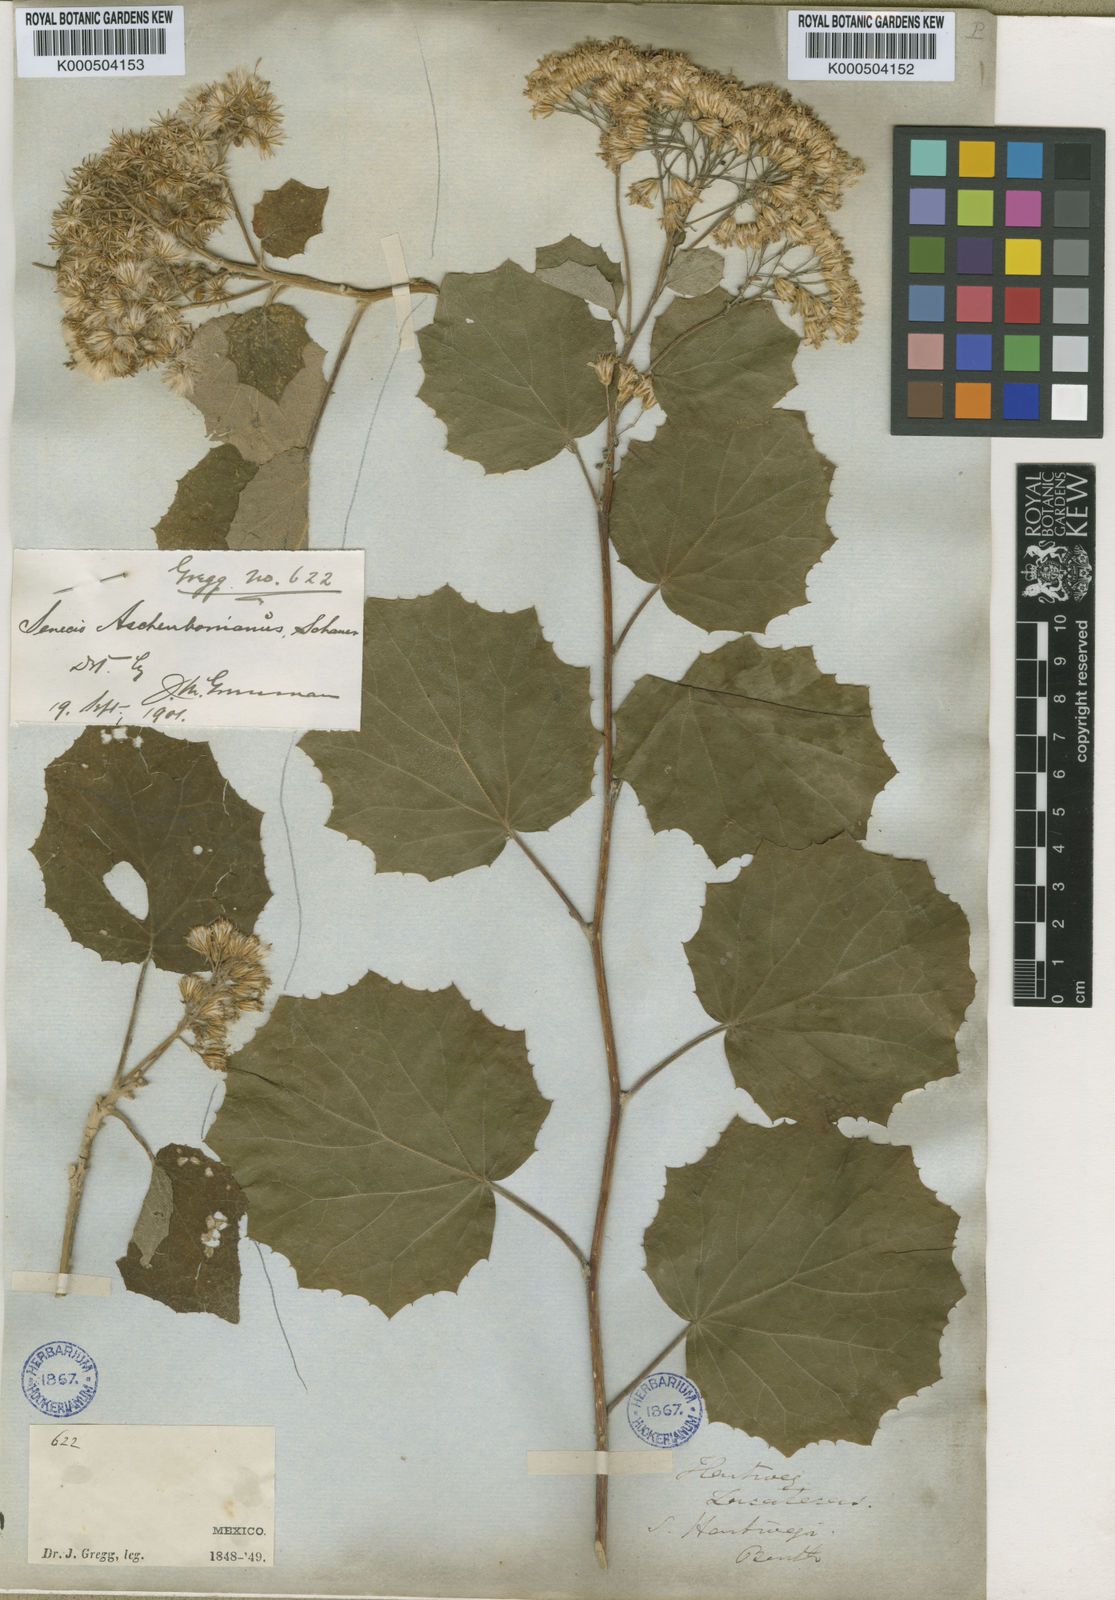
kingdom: Plantae
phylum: Tracheophyta
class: Magnoliopsida
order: Asterales
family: Asteraceae
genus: Roldana
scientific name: Roldana hartwegii
